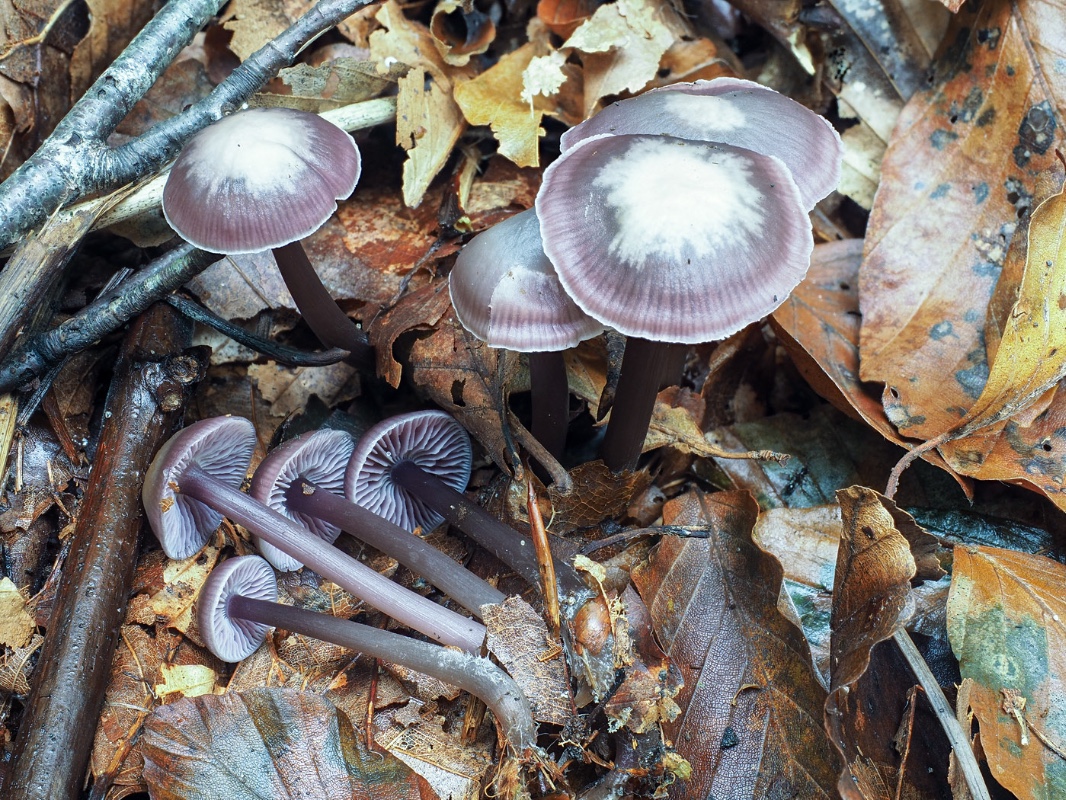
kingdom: Fungi
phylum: Basidiomycota
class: Agaricomycetes
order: Agaricales
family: Mycenaceae
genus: Prunulus
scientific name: Prunulus diosmus
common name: tobaks-huesvamp
